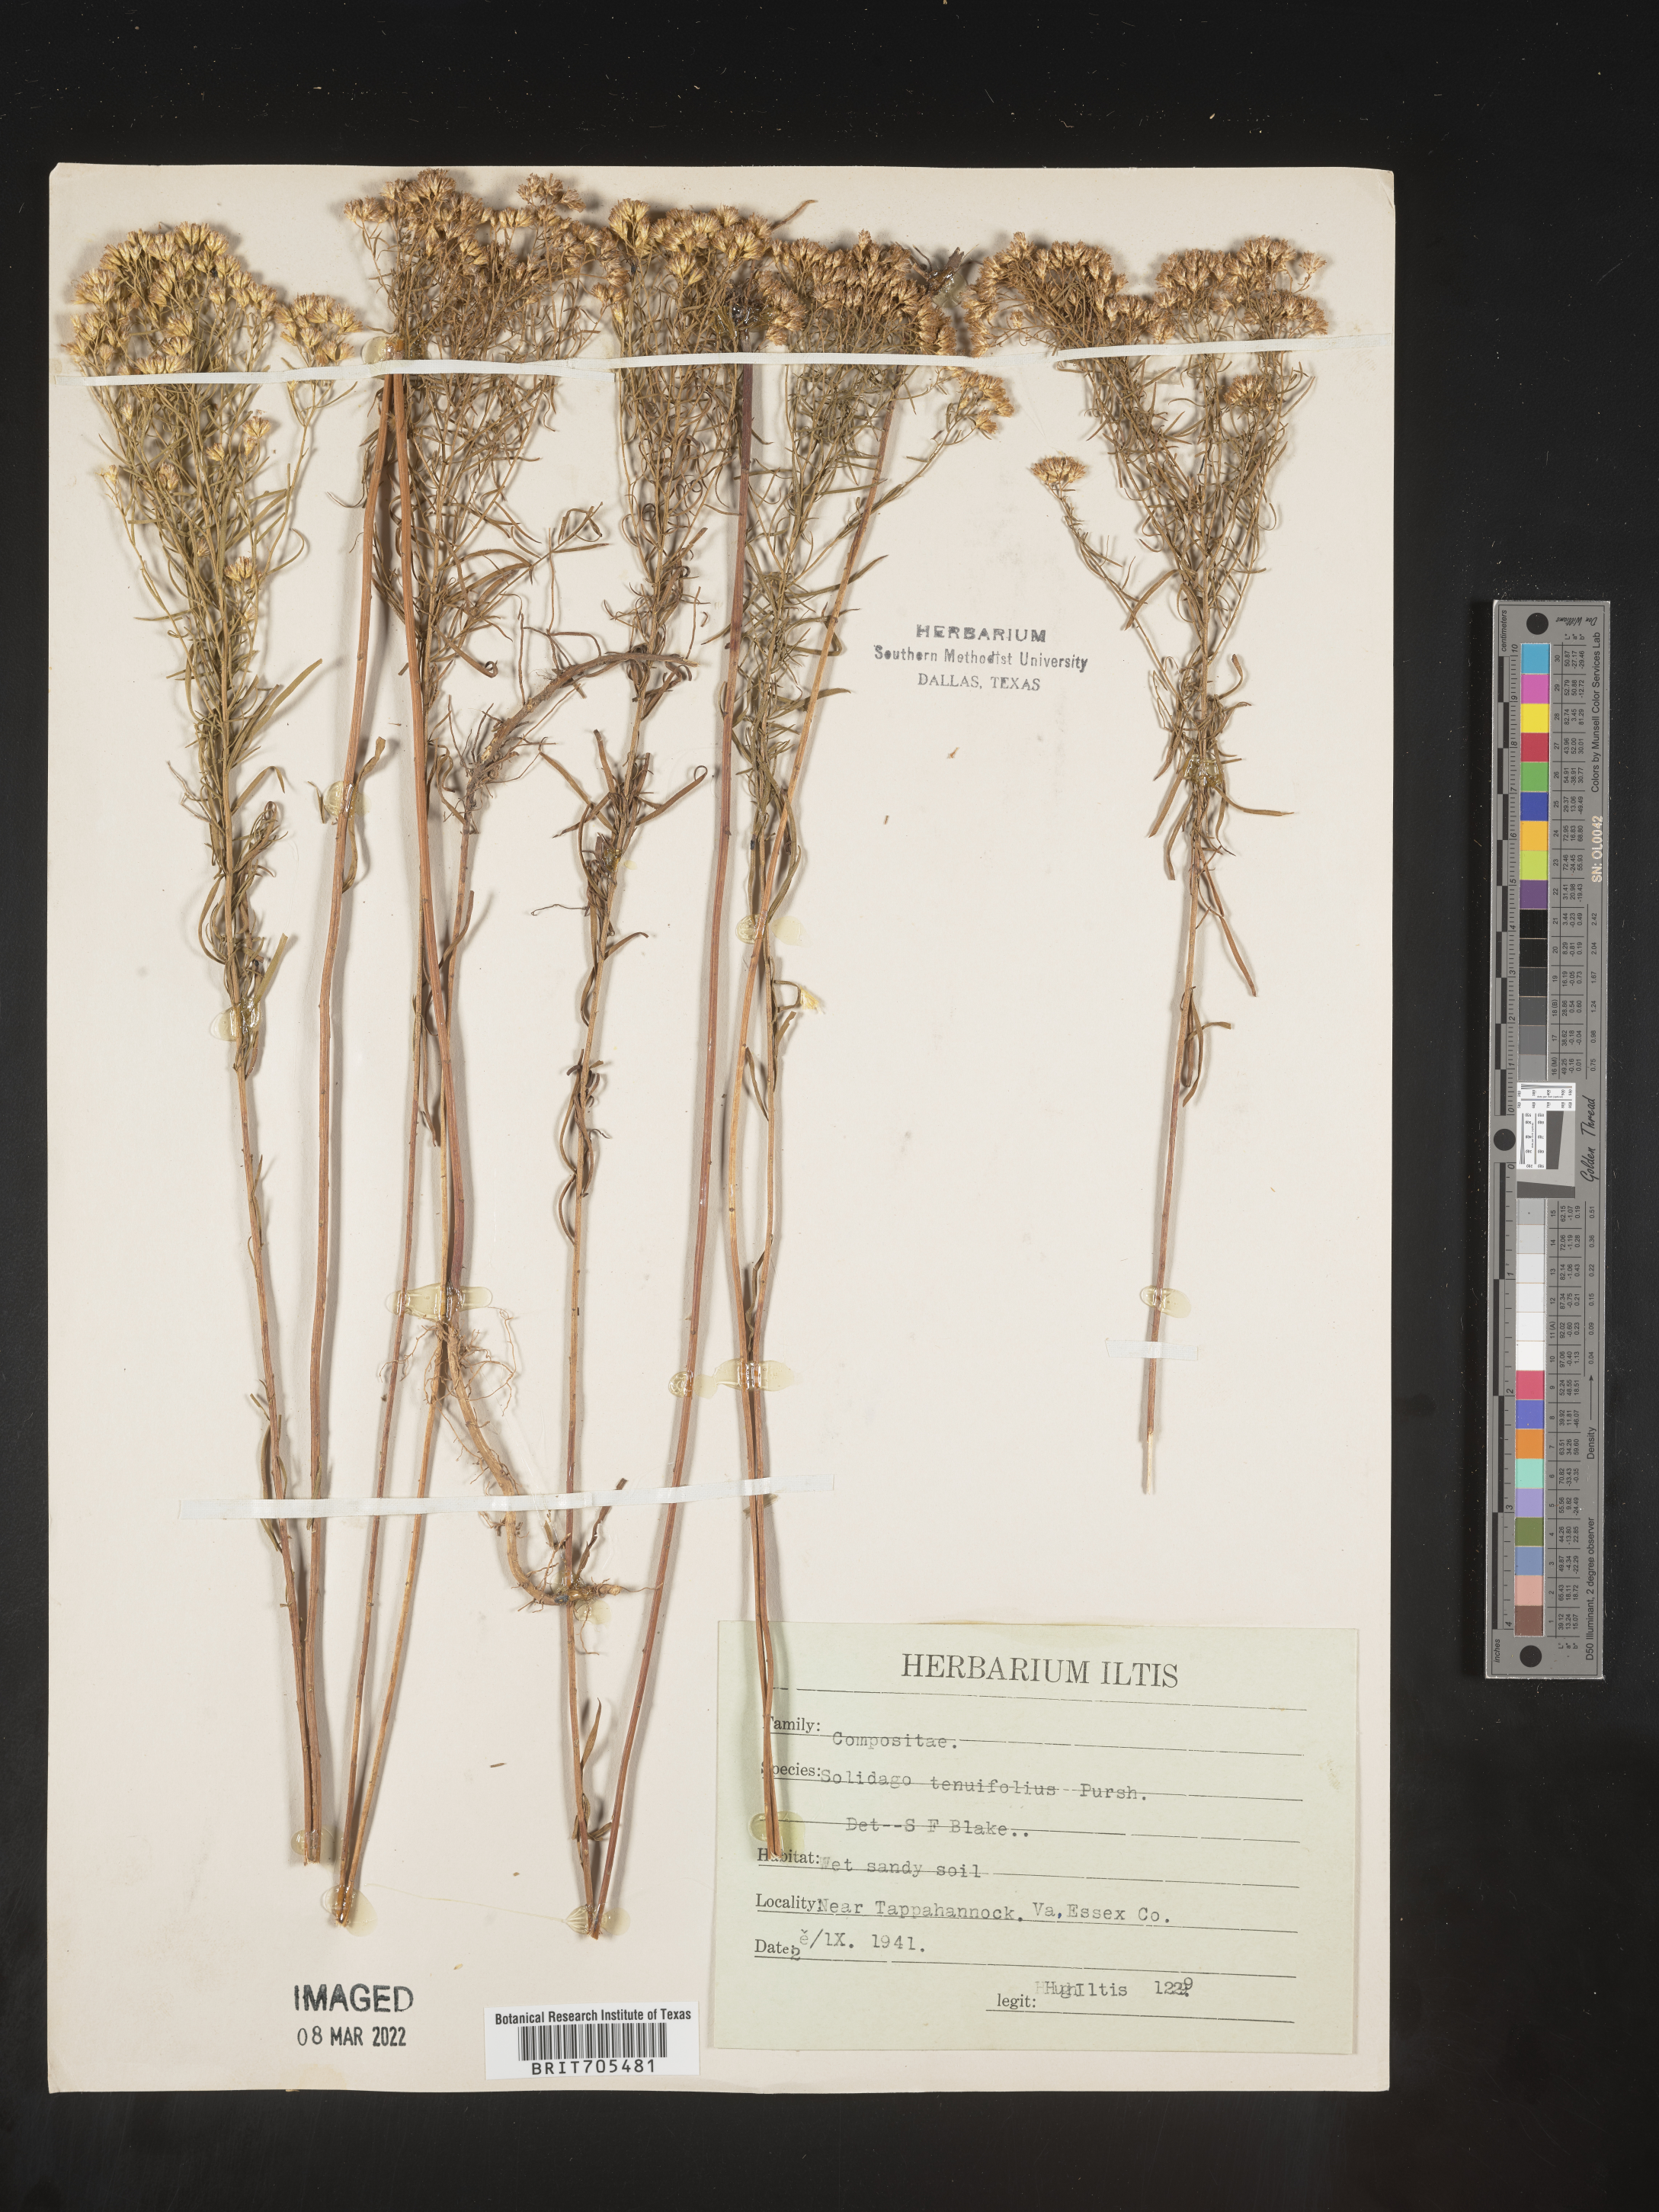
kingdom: Plantae
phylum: Tracheophyta
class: Magnoliopsida
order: Asterales
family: Asteraceae
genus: Euthamia
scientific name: Euthamia caroliniana
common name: Coastal plain goldentop
